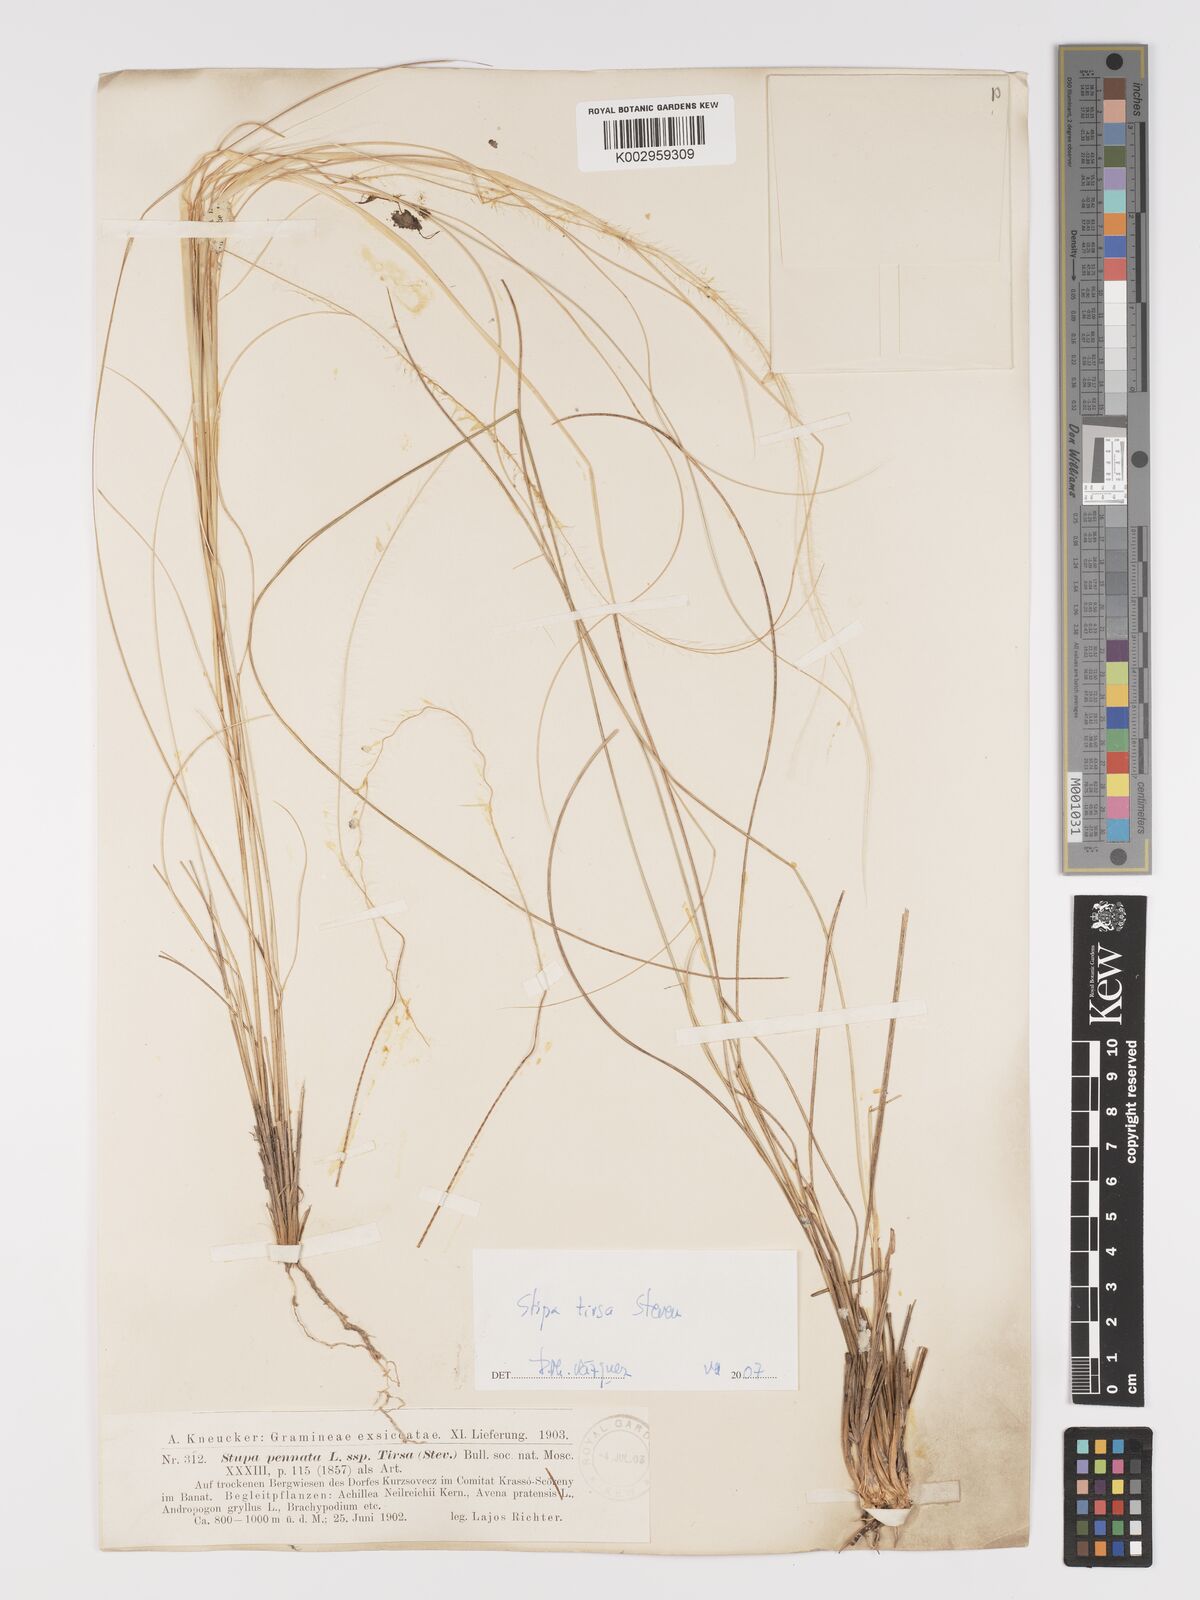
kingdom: Plantae
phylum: Tracheophyta
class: Liliopsida
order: Poales
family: Poaceae
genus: Stipa
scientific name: Stipa tirsa
